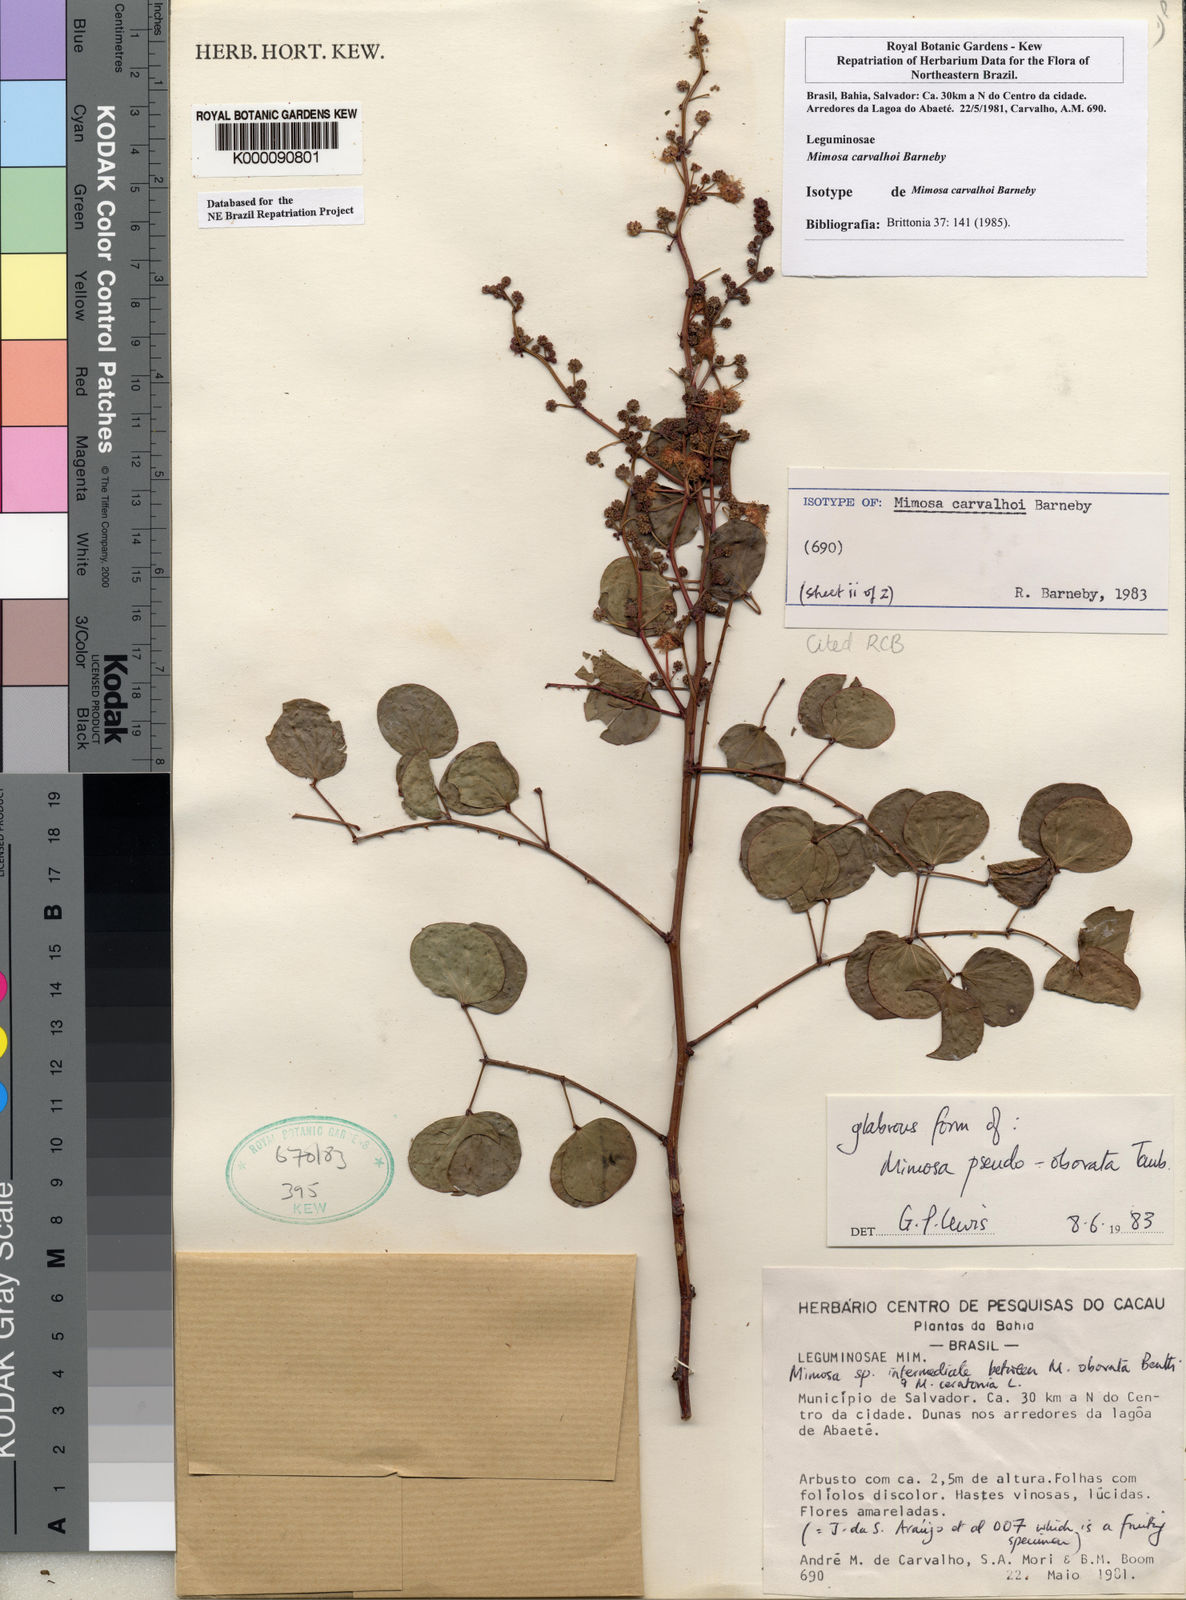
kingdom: Plantae
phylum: Tracheophyta
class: Magnoliopsida
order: Fabales
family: Fabaceae
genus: Mimosa
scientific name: Mimosa carvalhoi
